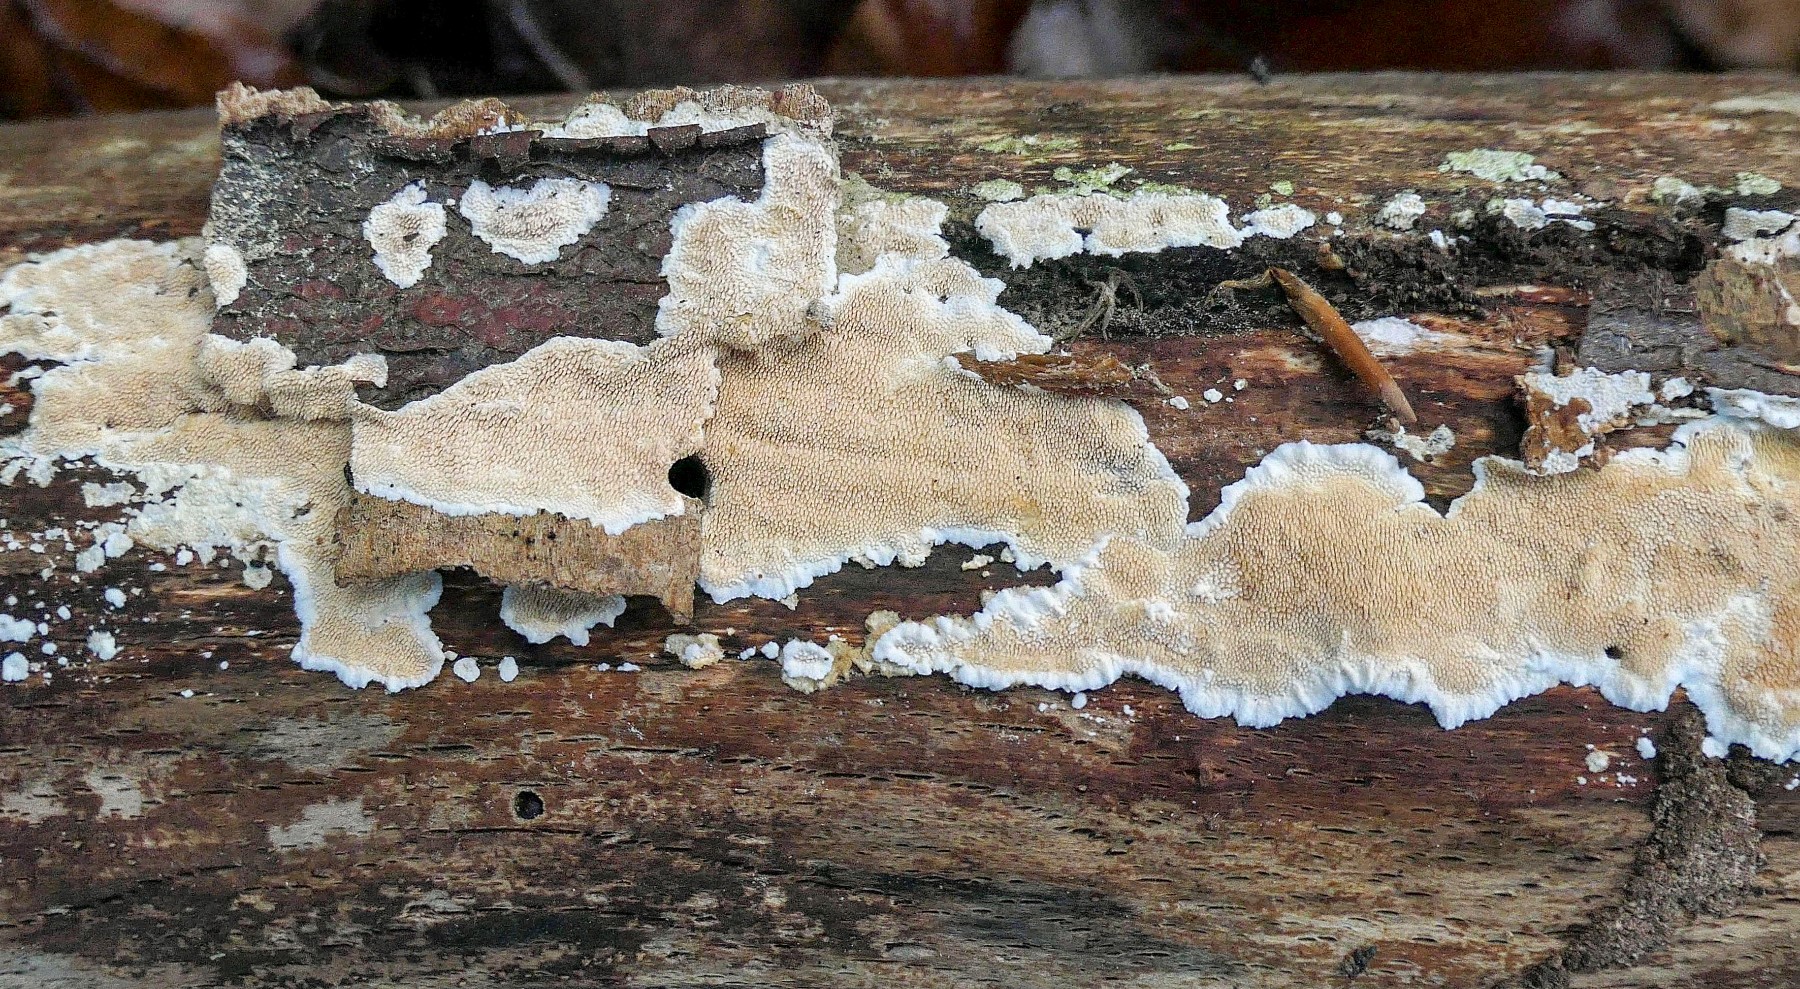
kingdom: Fungi
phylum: Basidiomycota
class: Agaricomycetes
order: Polyporales
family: Steccherinaceae
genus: Steccherinum
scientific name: Steccherinum ochraceum
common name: almindelig skønpig
